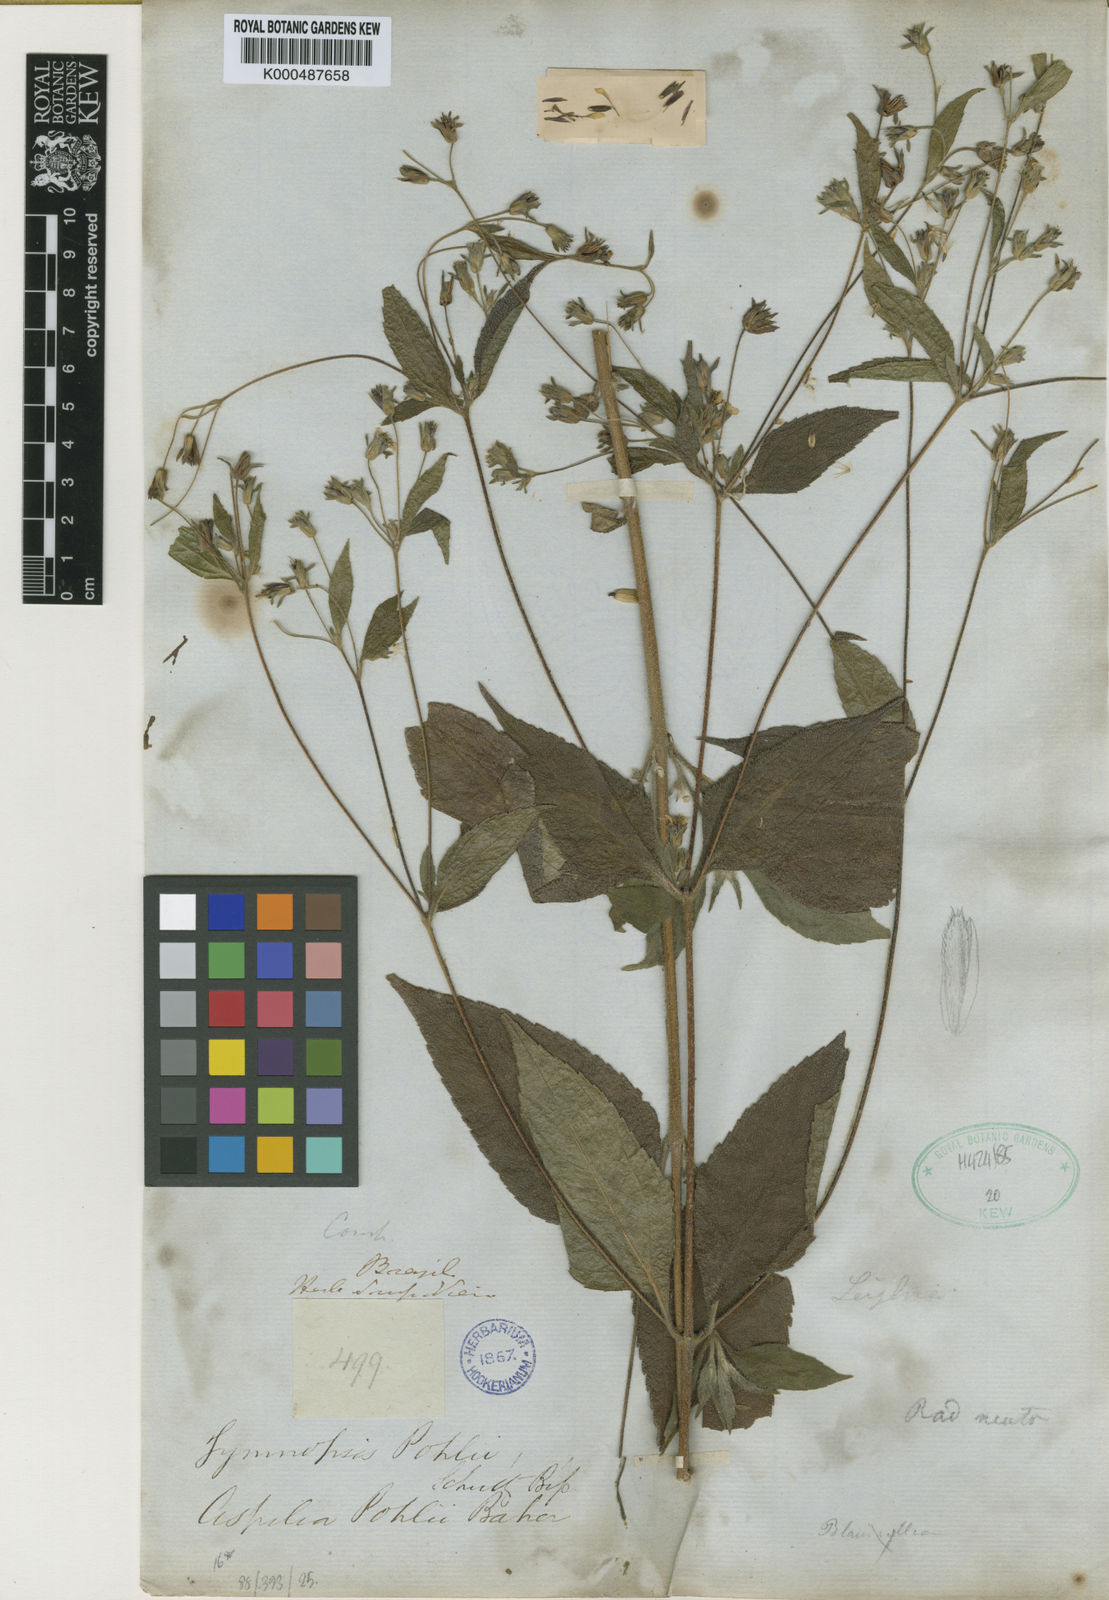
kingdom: Plantae
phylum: Tracheophyta
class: Magnoliopsida
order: Asterales
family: Asteraceae
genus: Aspilia
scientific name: Aspilia pohlii
